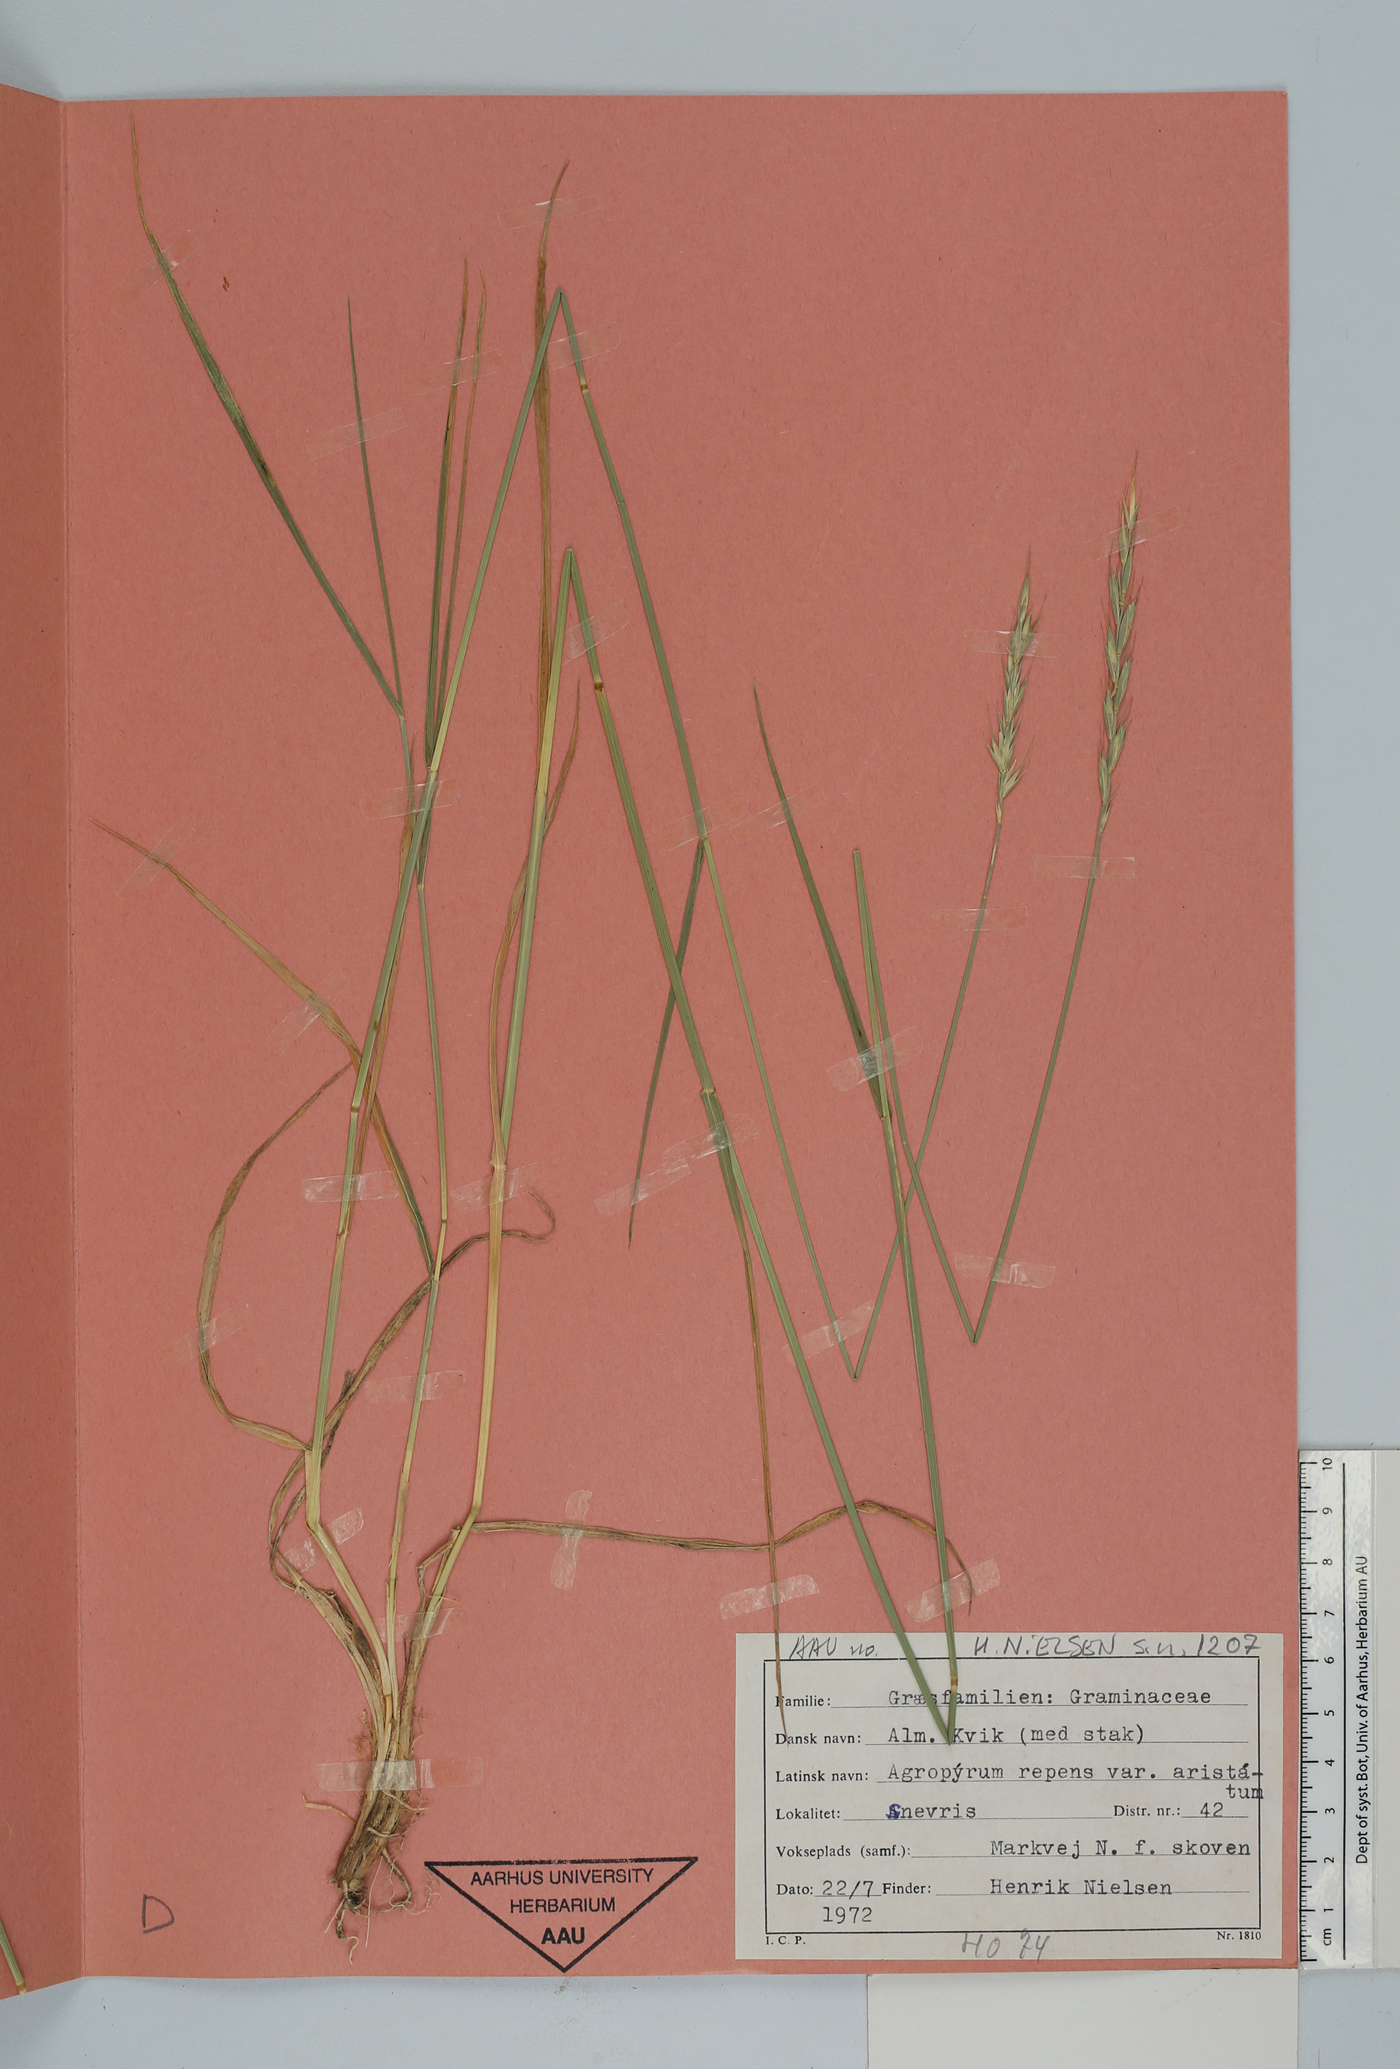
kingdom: Plantae
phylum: Tracheophyta
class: Liliopsida
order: Poales
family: Poaceae
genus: Elymus
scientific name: Elymus repens
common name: Quackgrass
